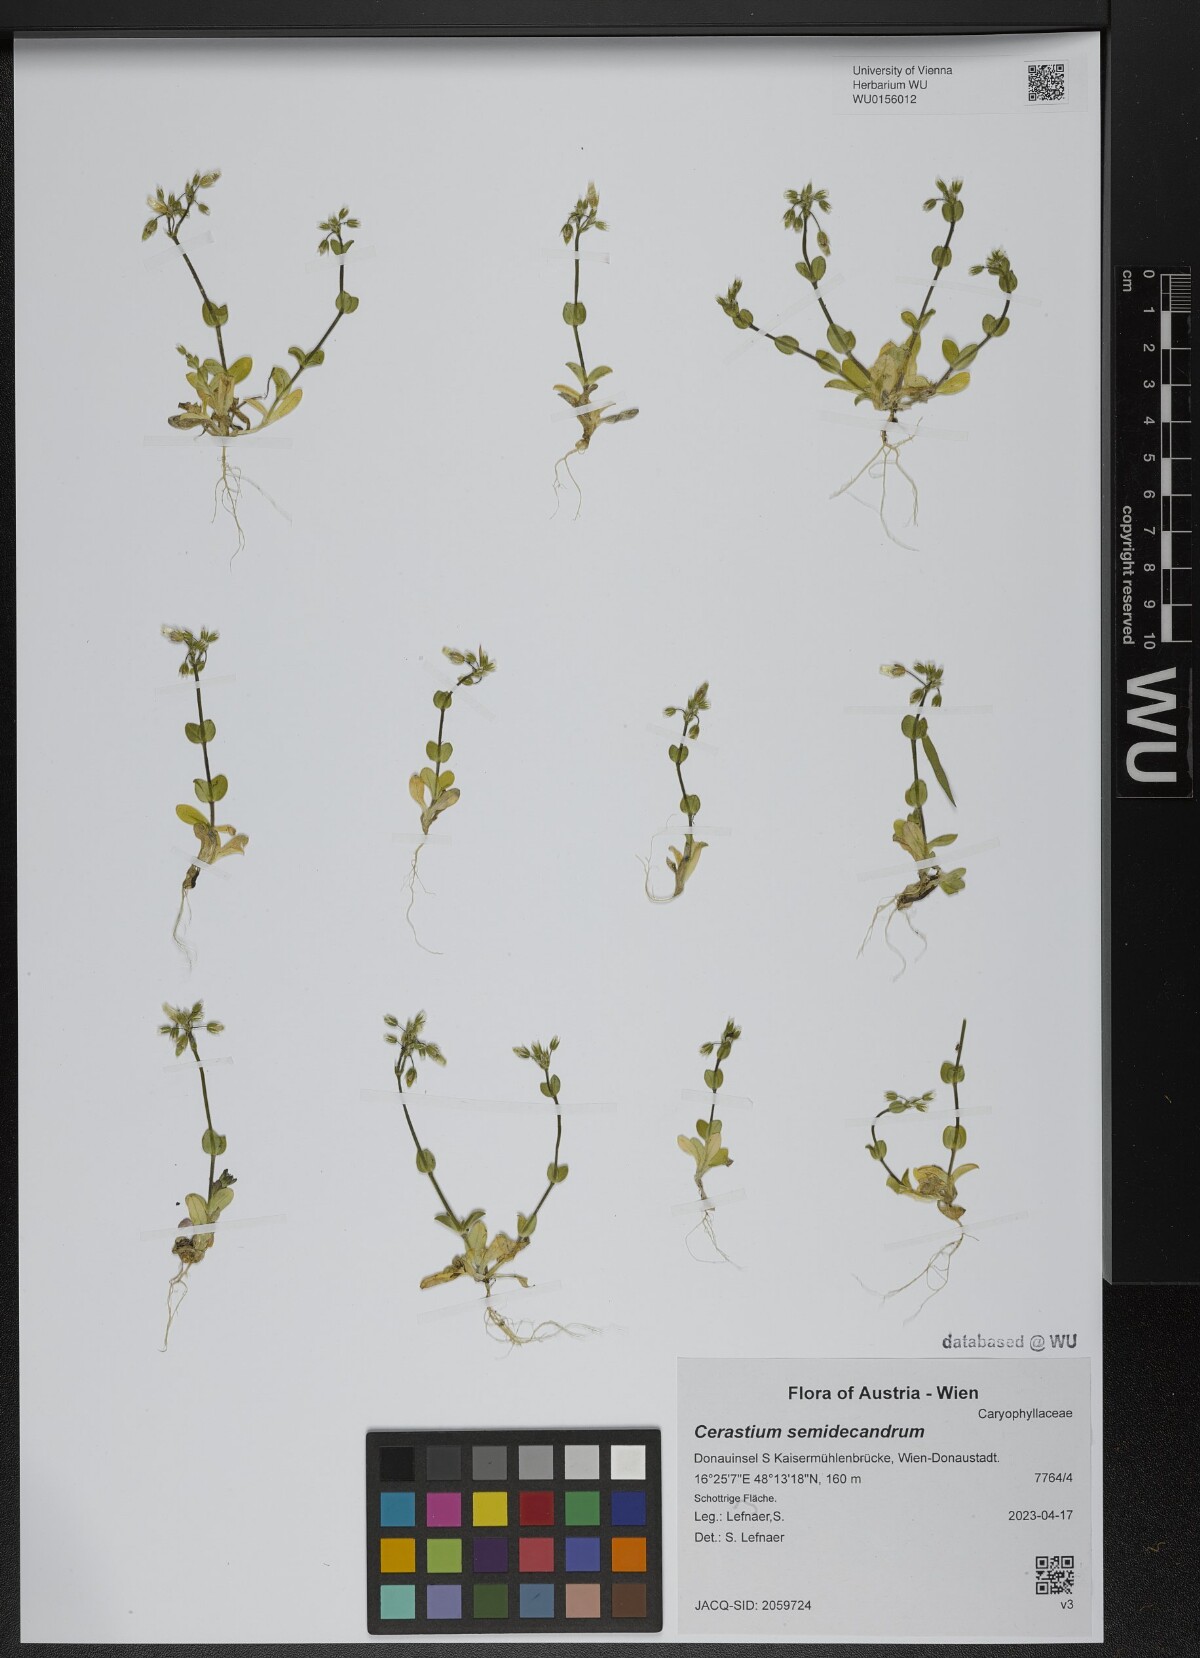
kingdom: Plantae
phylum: Tracheophyta
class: Magnoliopsida
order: Caryophyllales
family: Caryophyllaceae
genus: Cerastium
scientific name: Cerastium semidecandrum
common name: Little mouse-ear
